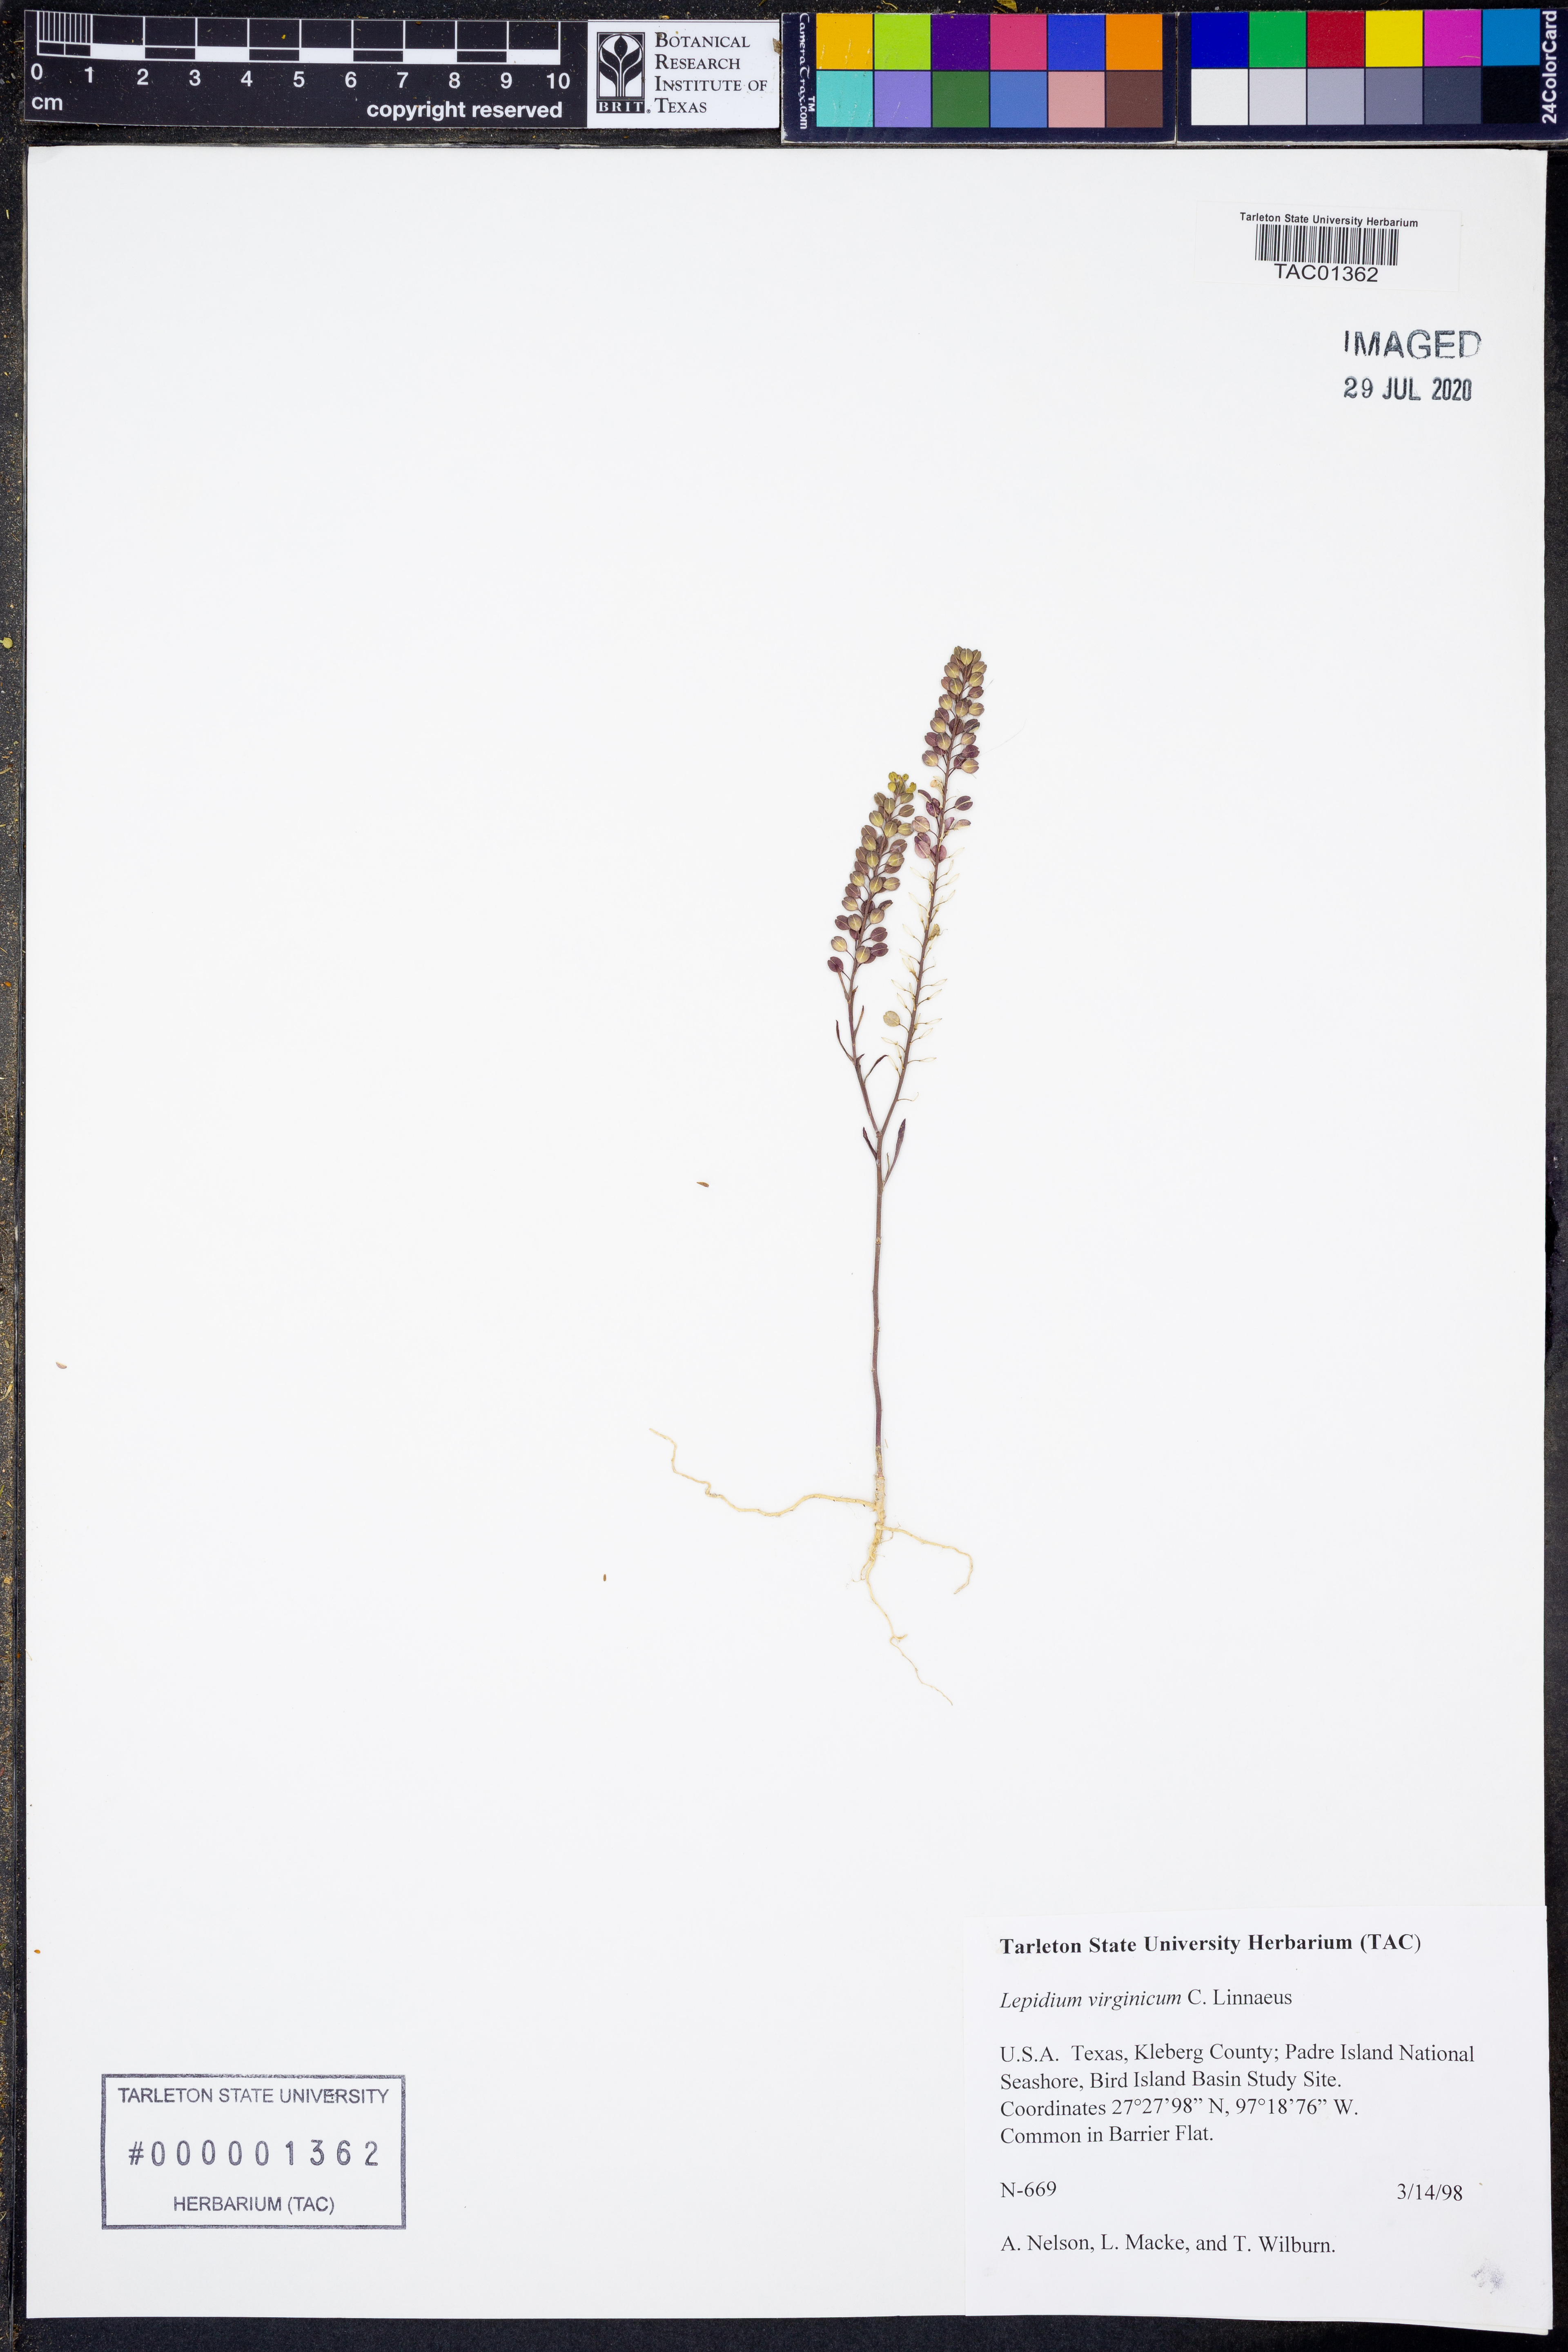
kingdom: Plantae
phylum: Tracheophyta
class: Magnoliopsida
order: Brassicales
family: Brassicaceae
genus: Lepidium
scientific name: Lepidium virginicum
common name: Least pepperwort
